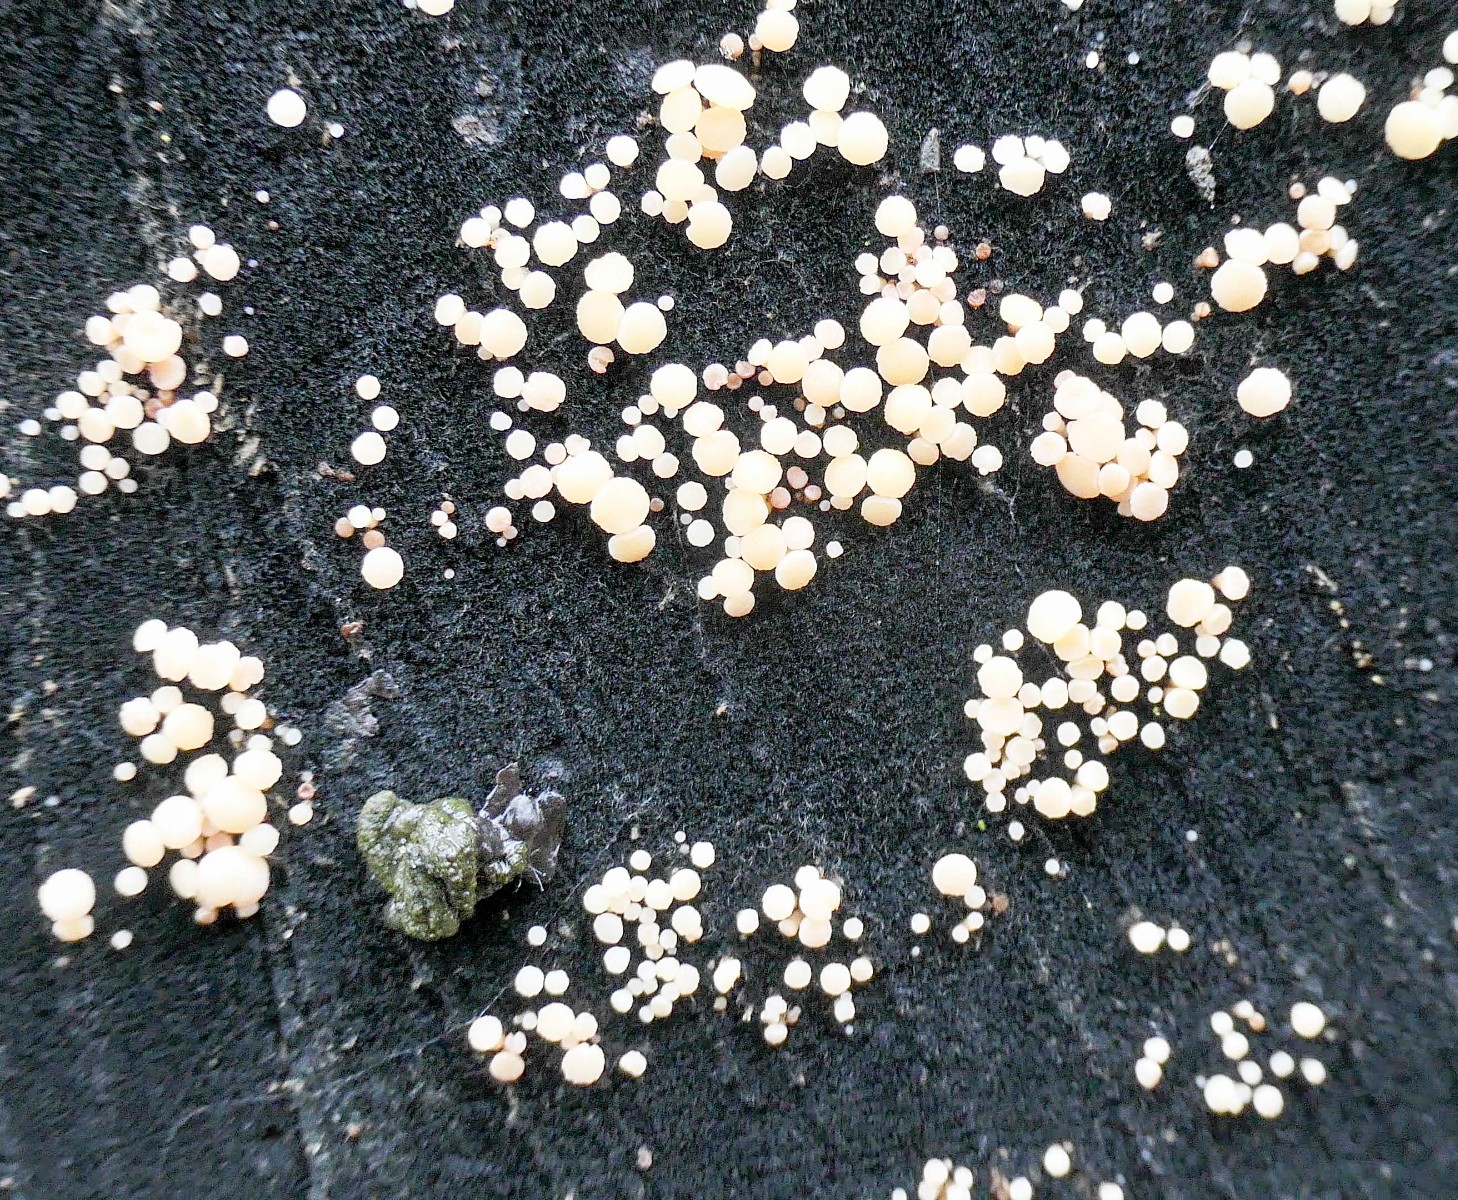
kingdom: Fungi
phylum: Ascomycota
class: Leotiomycetes
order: Helotiales
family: Helotiaceae
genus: Bispora
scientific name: Bispora pallescens
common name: måtte-snitskive
